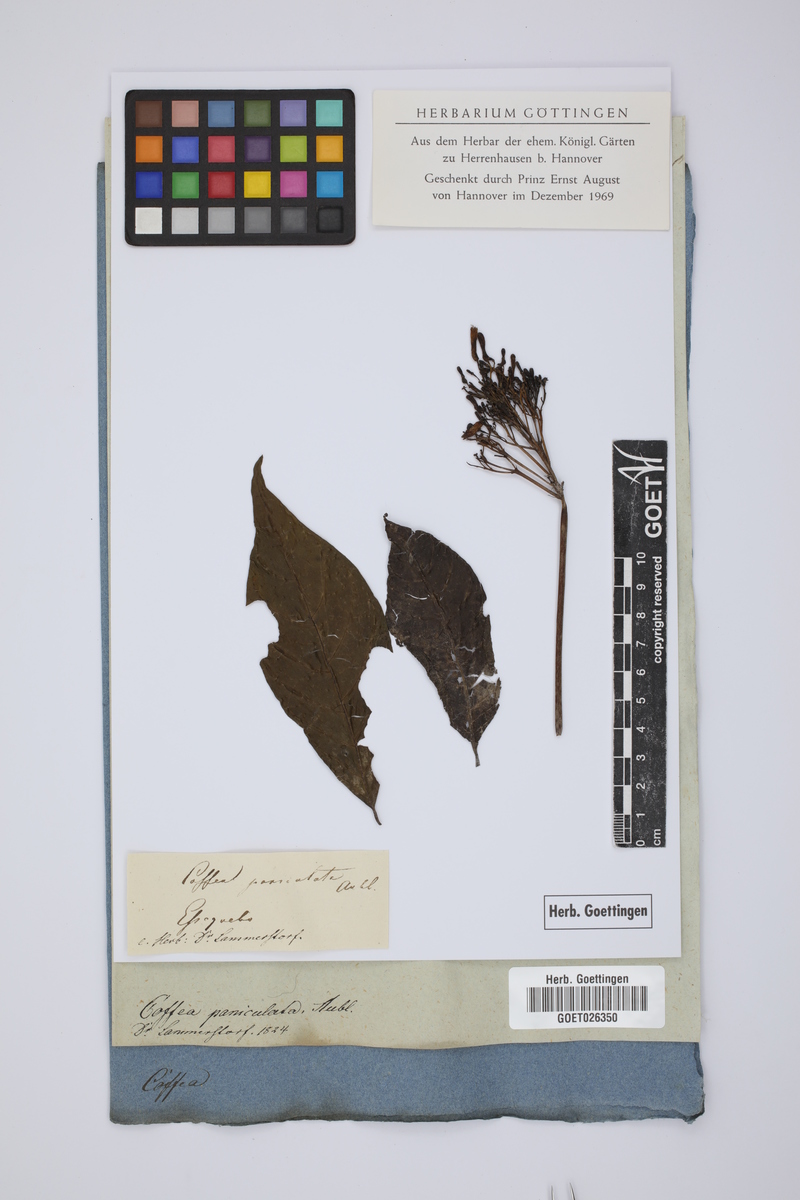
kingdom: Plantae
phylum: Tracheophyta
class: Magnoliopsida
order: Gentianales
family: Rubiaceae
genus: Faramea
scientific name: Faramea paniculata
